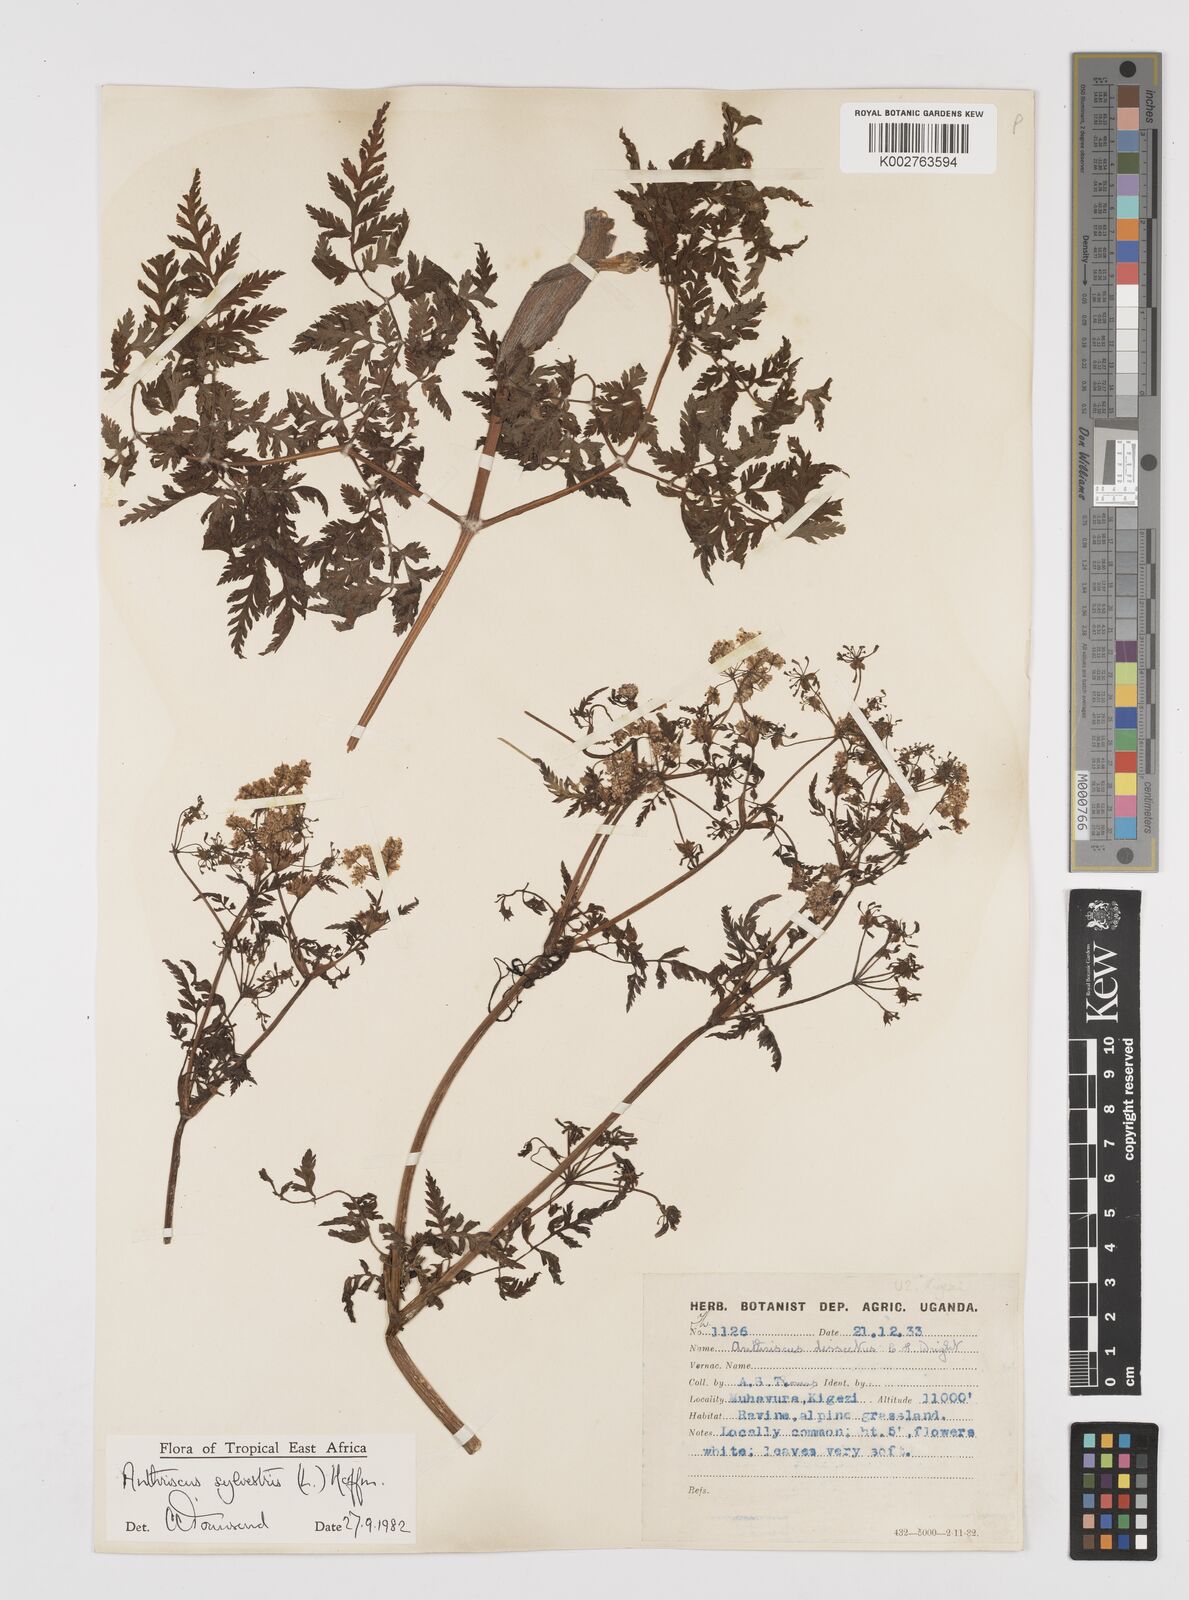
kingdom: Plantae
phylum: Tracheophyta
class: Magnoliopsida
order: Apiales
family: Apiaceae
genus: Anthriscus
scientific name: Anthriscus sylvestris
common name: Cow parsley
